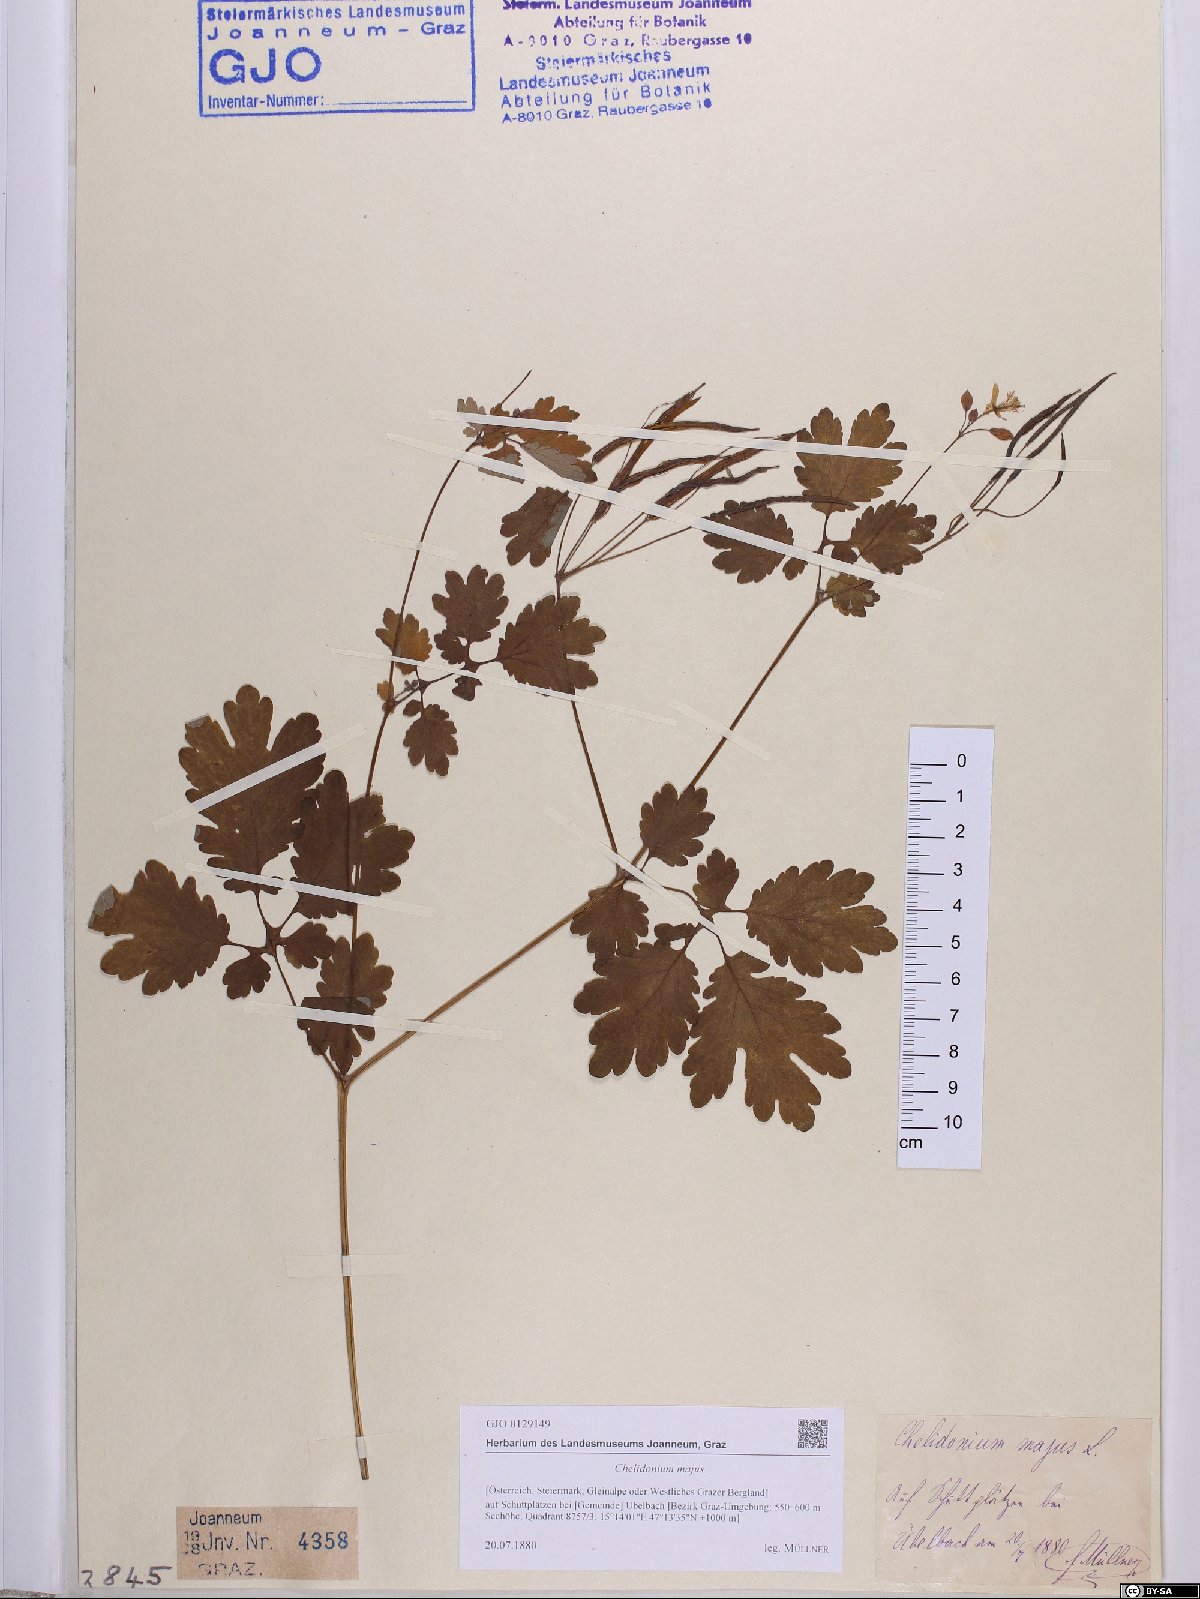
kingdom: Plantae
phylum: Tracheophyta
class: Magnoliopsida
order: Ranunculales
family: Papaveraceae
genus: Chelidonium
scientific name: Chelidonium majus
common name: Greater celandine
